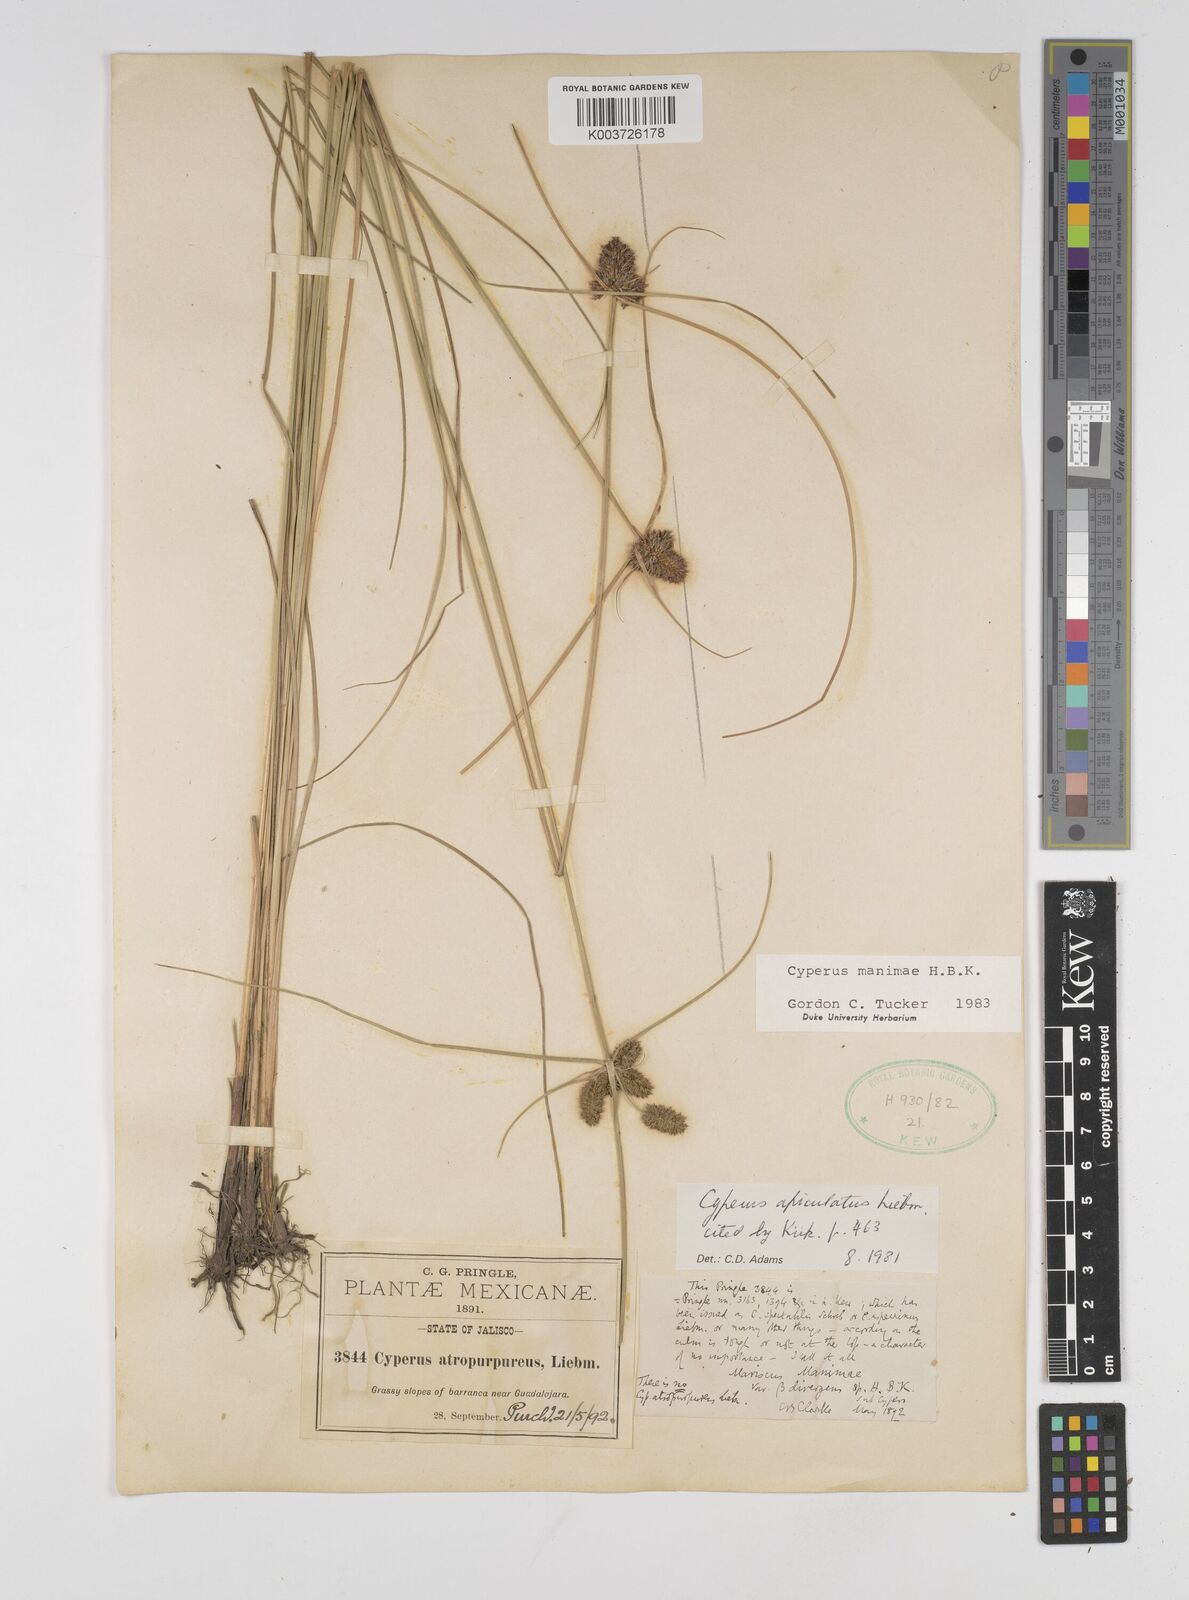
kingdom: Plantae
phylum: Tracheophyta
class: Liliopsida
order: Poales
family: Cyperaceae
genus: Cyperus
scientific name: Cyperus manimae
